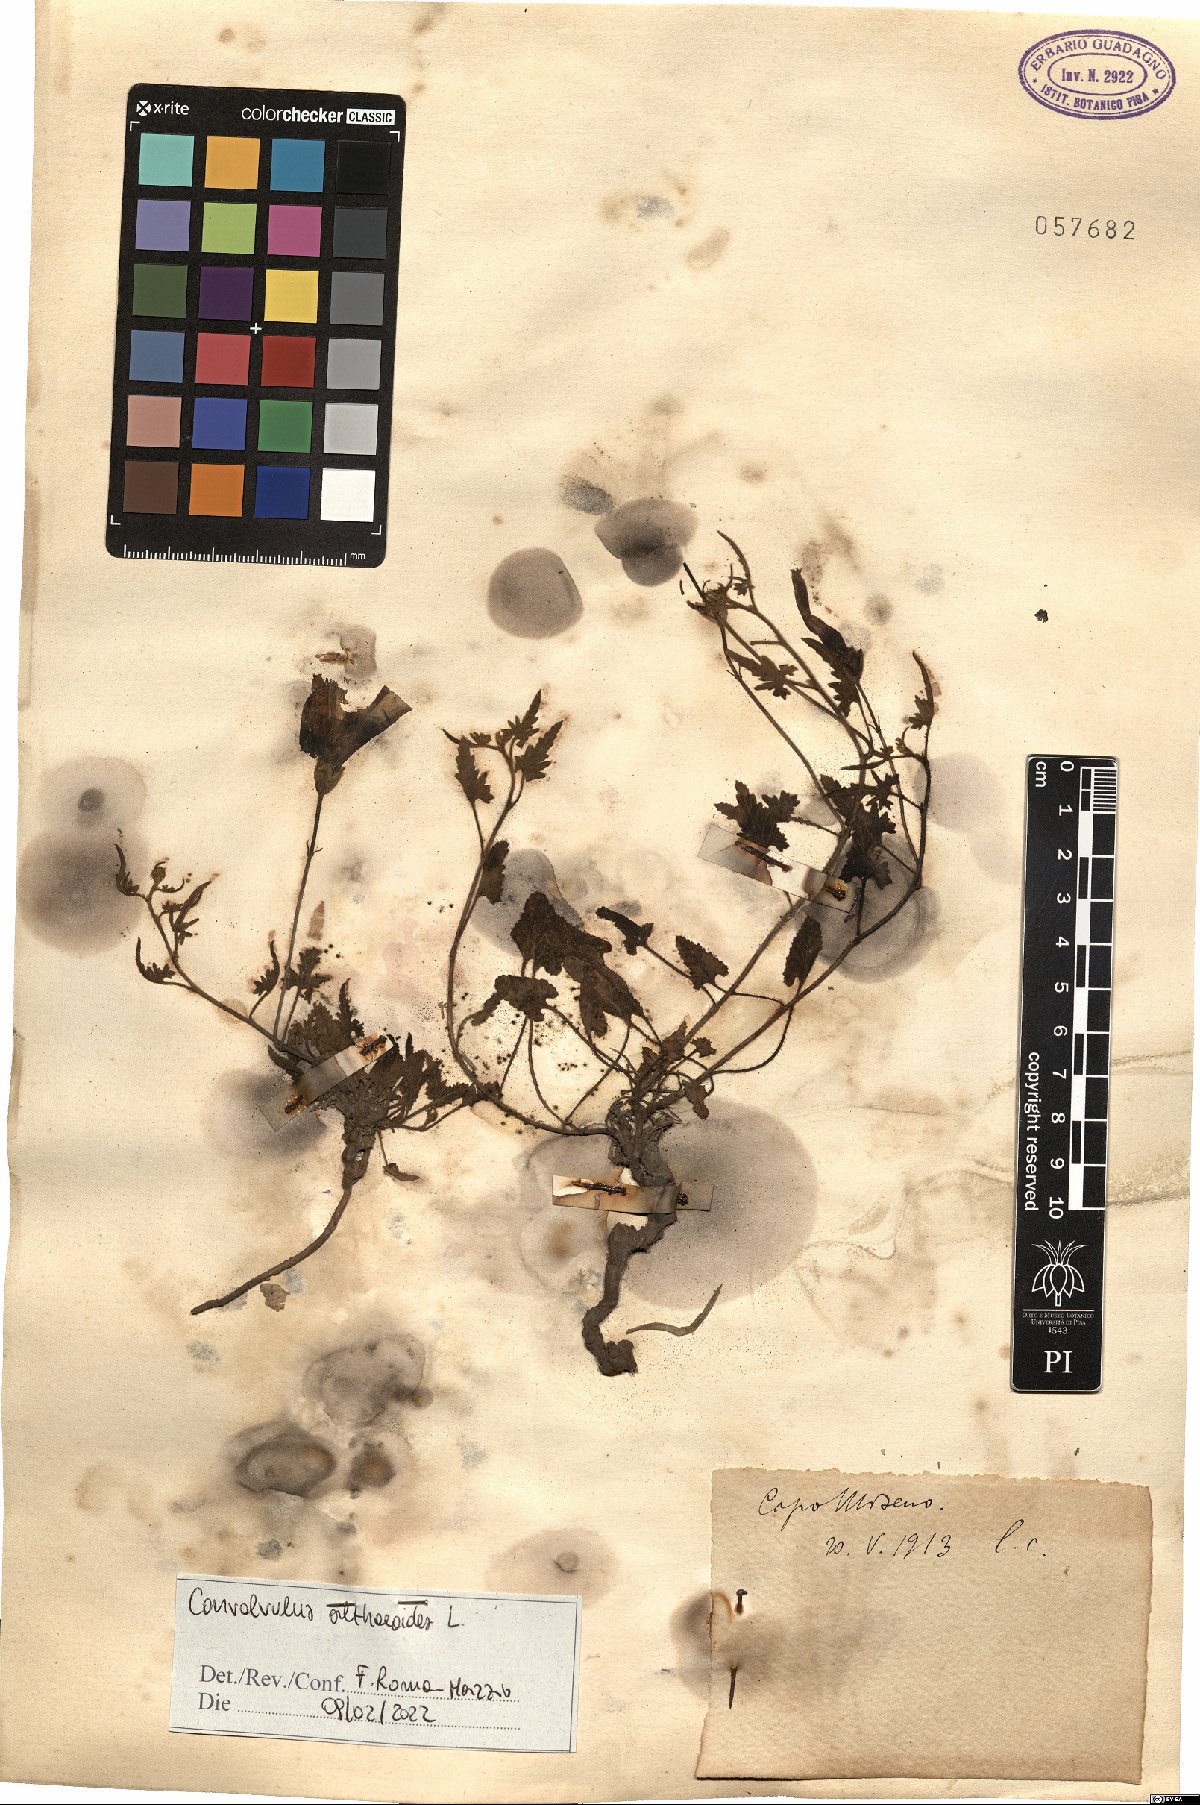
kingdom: Plantae
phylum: Tracheophyta
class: Magnoliopsida
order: Solanales
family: Convolvulaceae
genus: Convolvulus
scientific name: Convolvulus althaeoides
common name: Mallow bindweed
